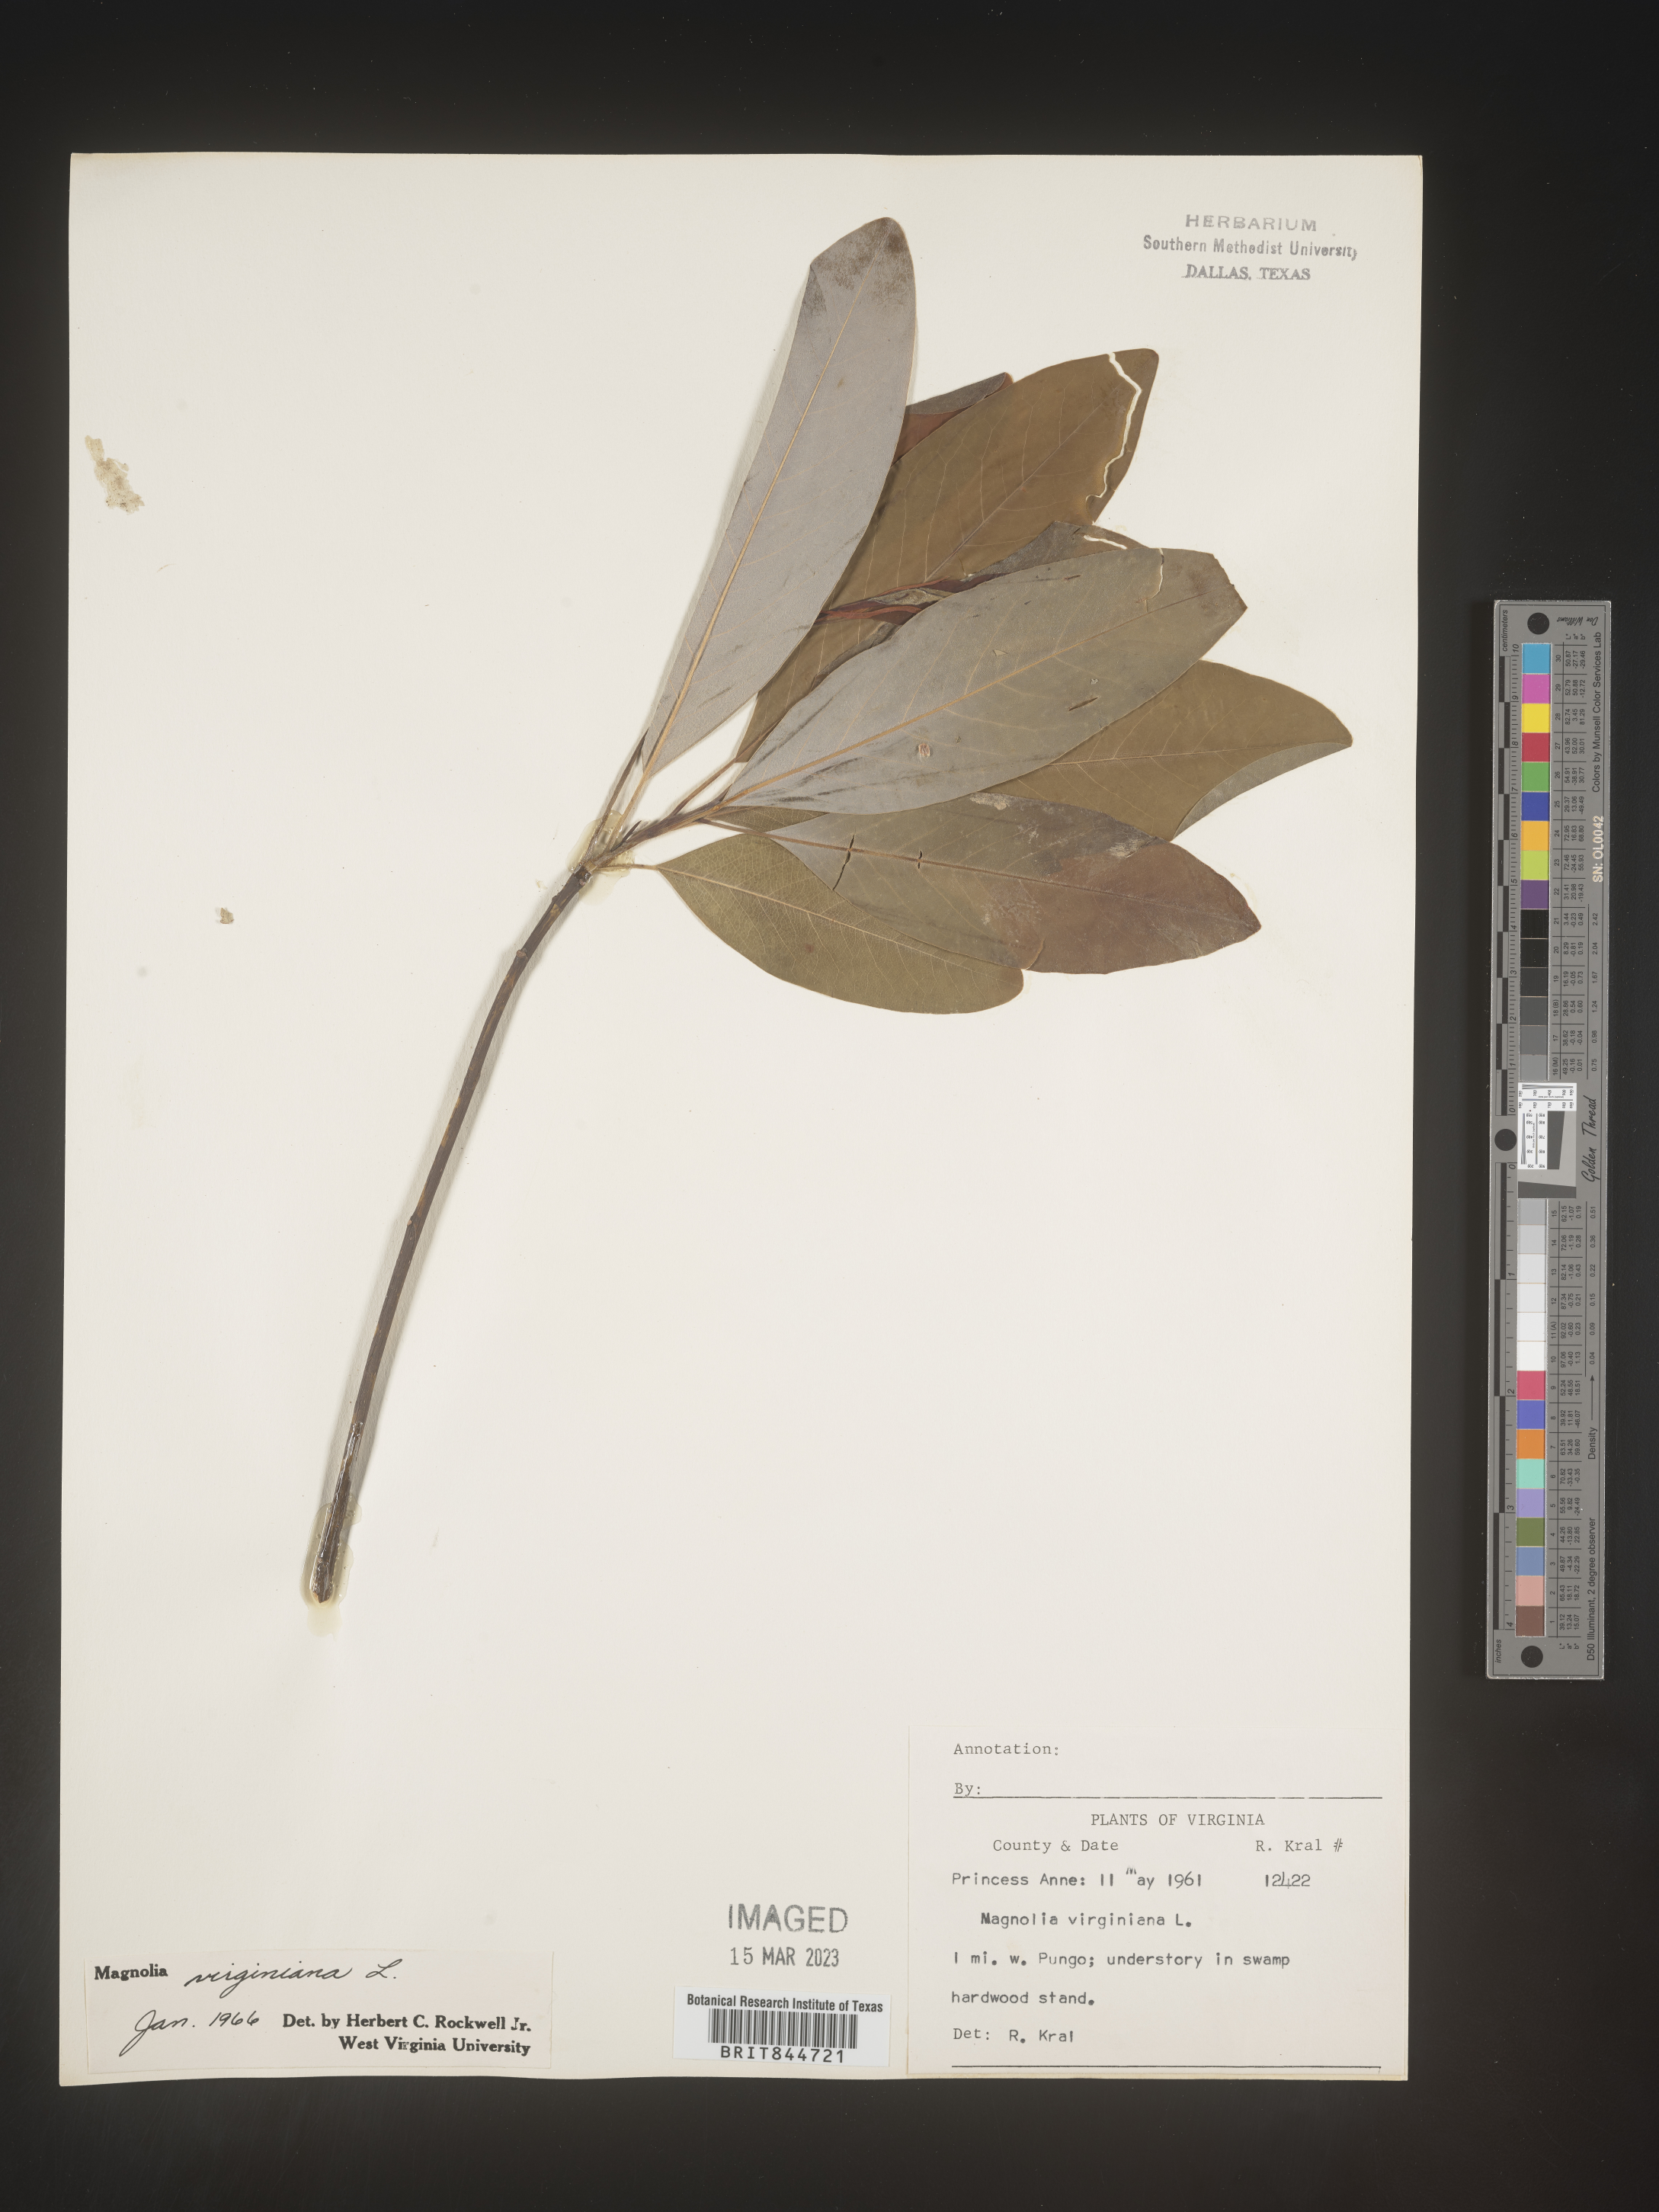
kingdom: Plantae
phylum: Tracheophyta
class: Magnoliopsida
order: Magnoliales
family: Magnoliaceae
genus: Magnolia
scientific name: Magnolia virginiana
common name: Swamp bay
